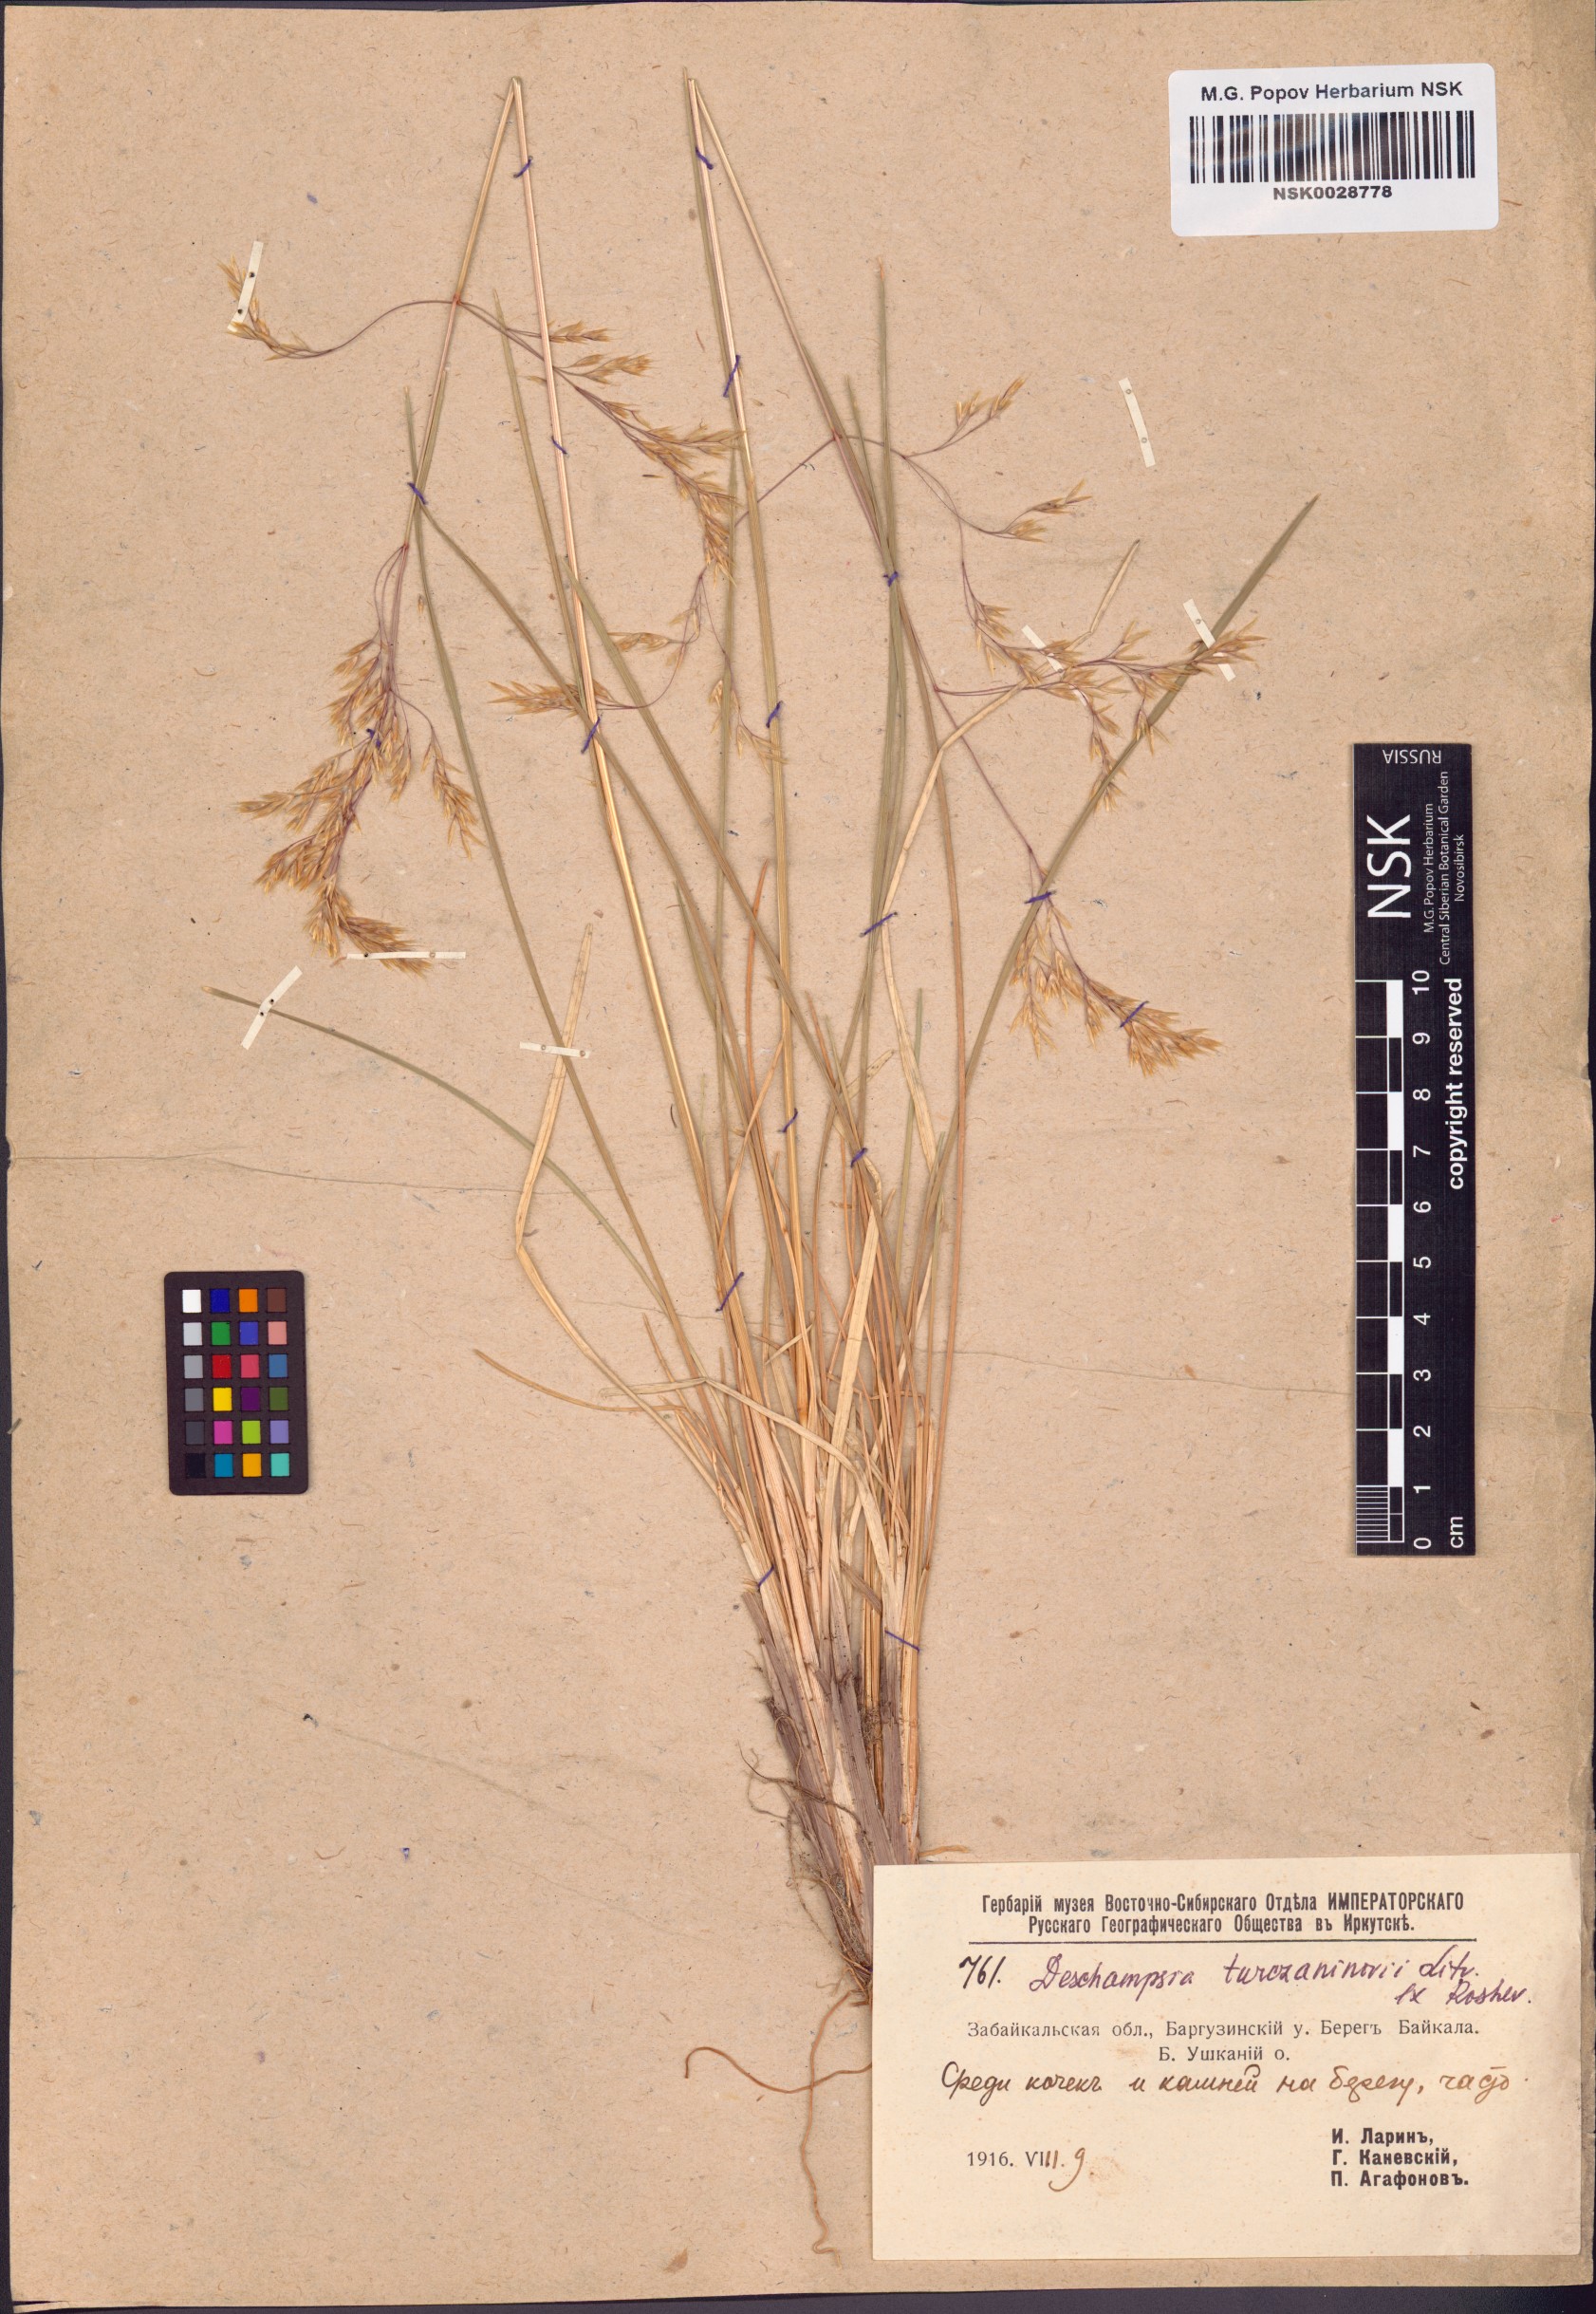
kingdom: Plantae
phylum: Tracheophyta
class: Liliopsida
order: Poales
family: Poaceae
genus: Deschampsia
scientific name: Deschampsia cespitosa
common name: Tufted hair-grass
